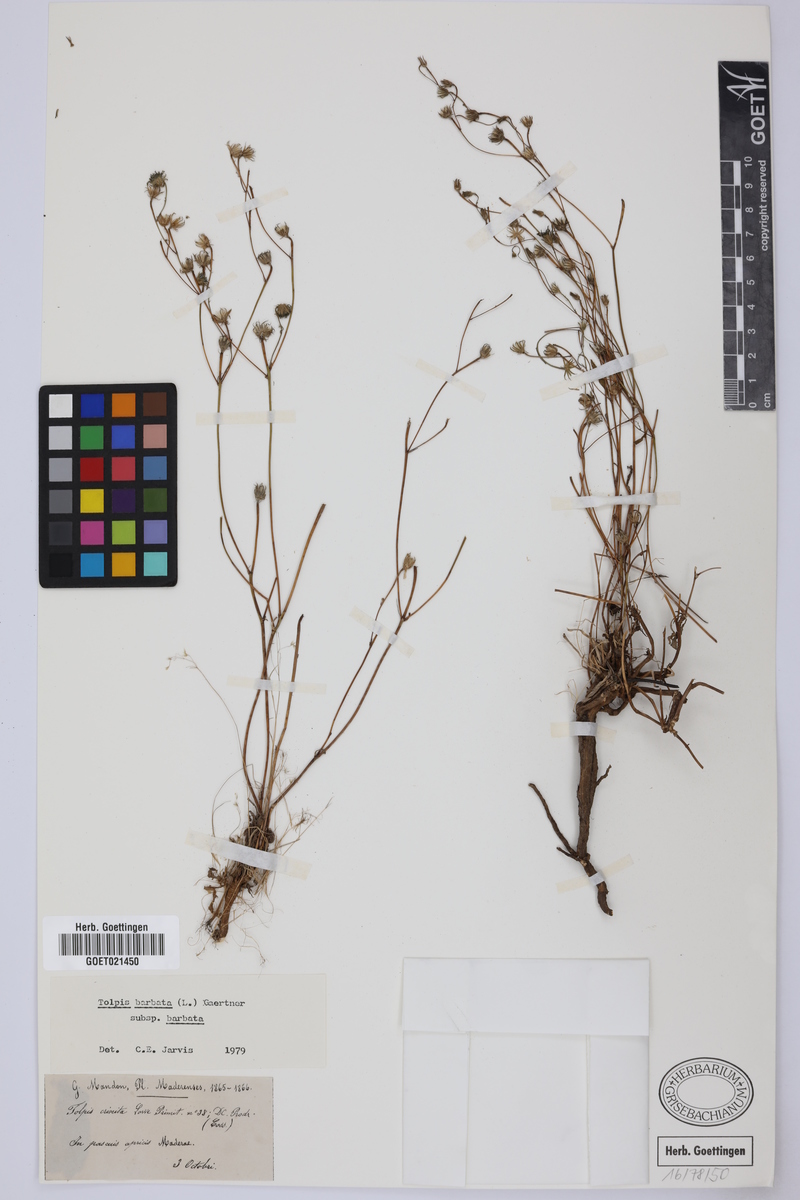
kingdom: Plantae
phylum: Tracheophyta
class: Magnoliopsida
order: Asterales
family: Asteraceae
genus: Tolpis
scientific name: Tolpis barbata
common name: Yellow hawkweed
